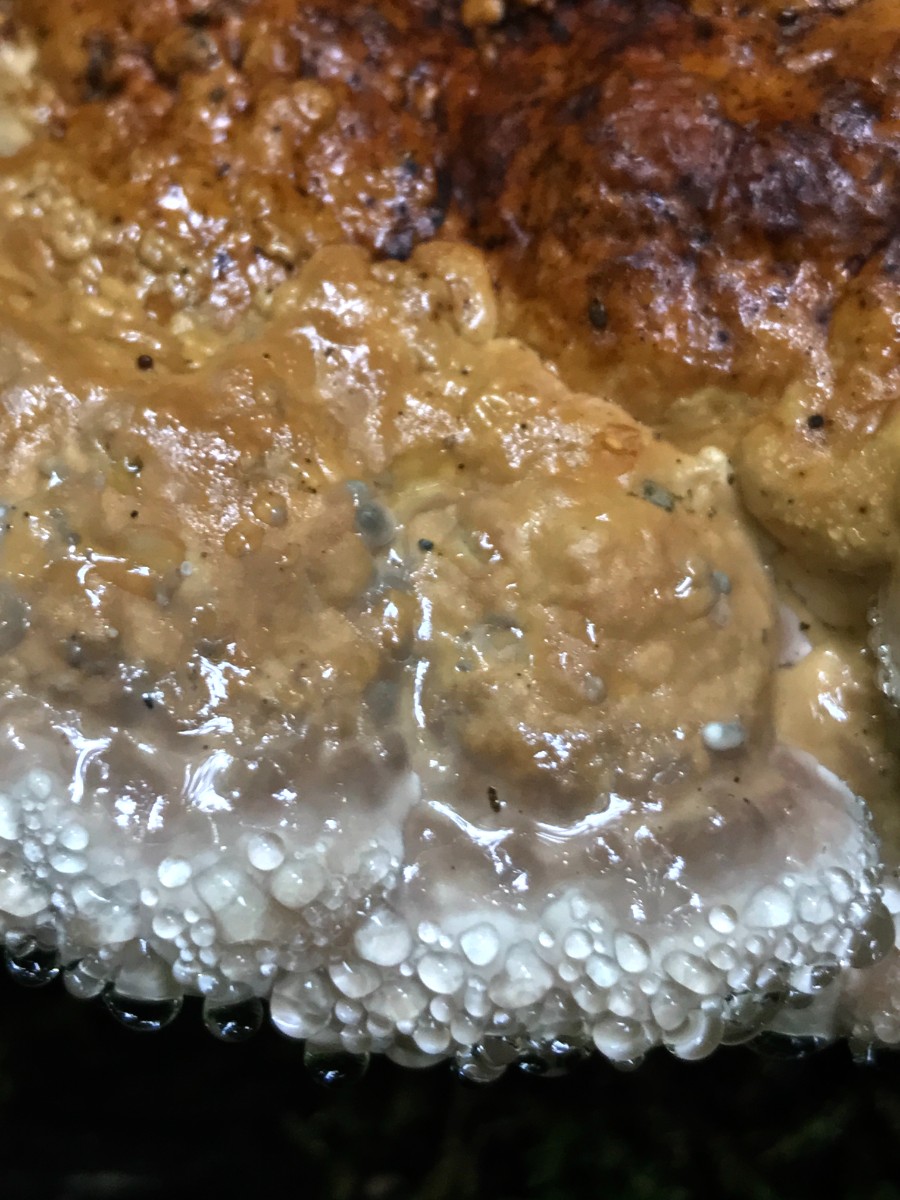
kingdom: Fungi
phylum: Basidiomycota
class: Agaricomycetes
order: Polyporales
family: Fomitopsidaceae
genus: Fomitopsis
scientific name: Fomitopsis pinicola
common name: randbæltet hovporesvamp
